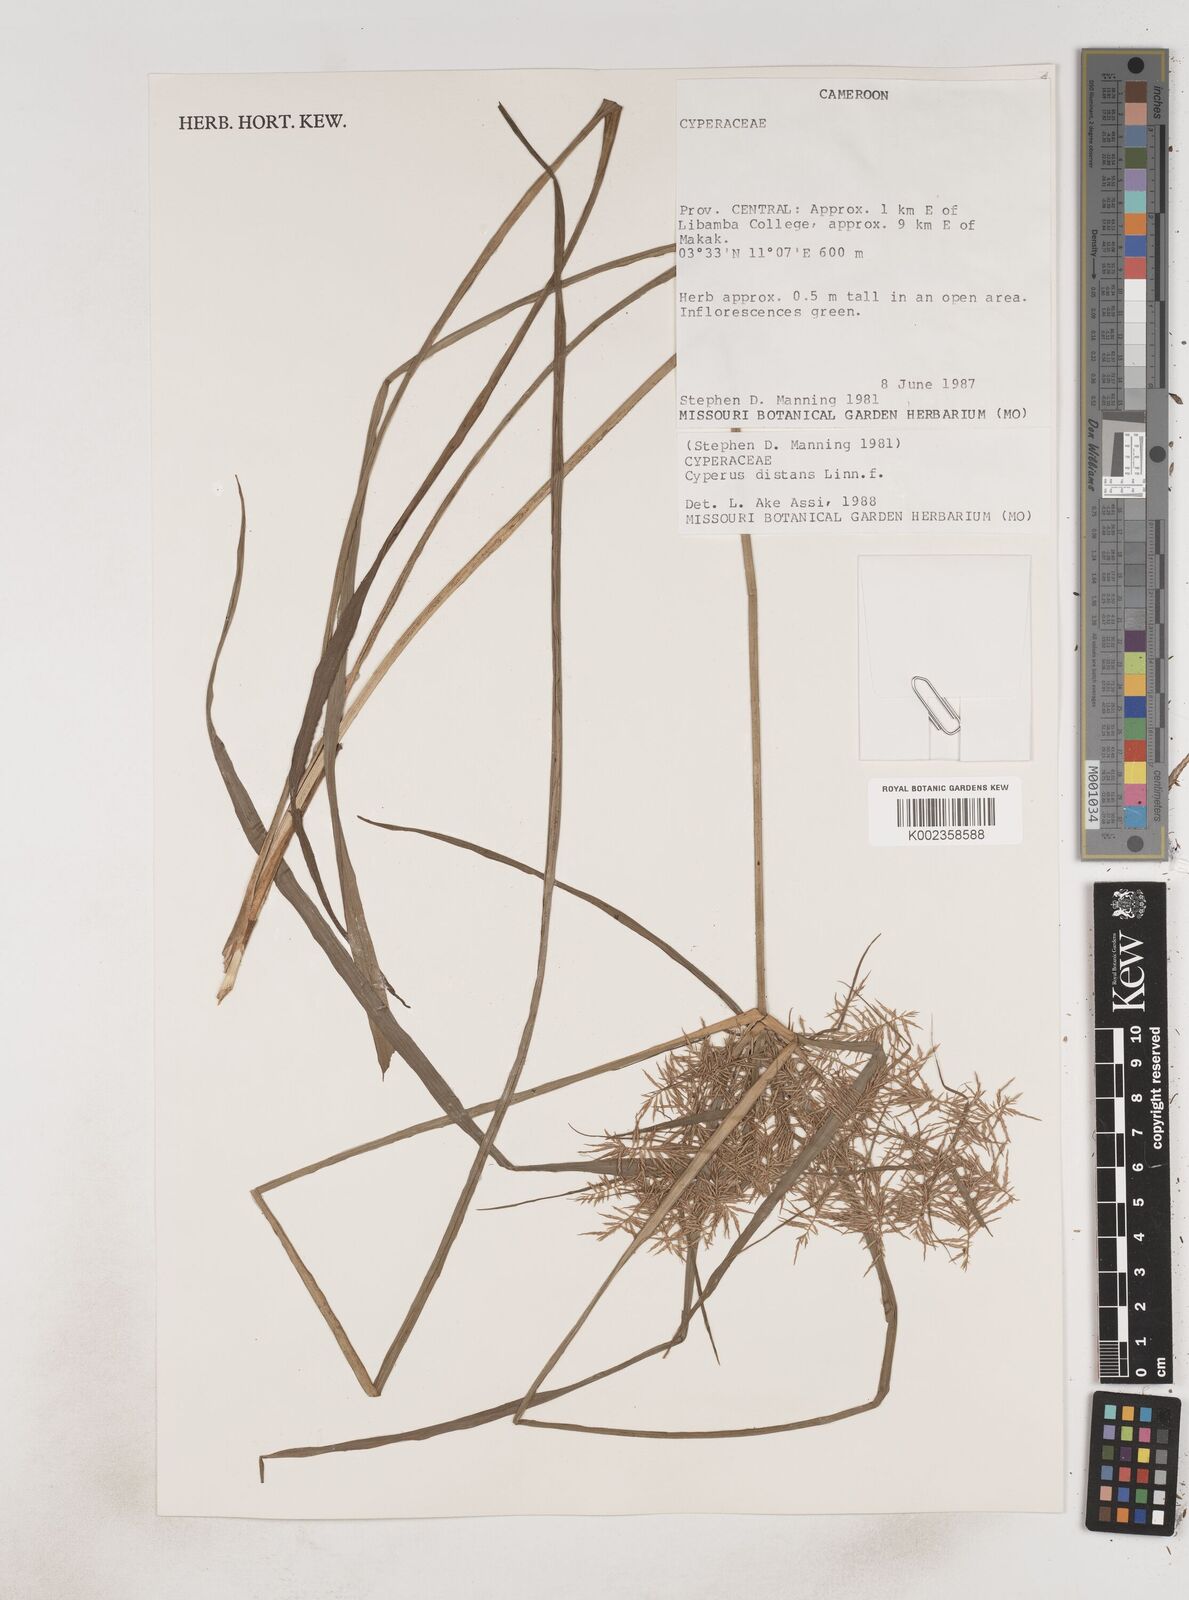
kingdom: Plantae
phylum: Tracheophyta
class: Liliopsida
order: Poales
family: Cyperaceae
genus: Cyperus
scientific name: Cyperus distans
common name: Slender cyperus
